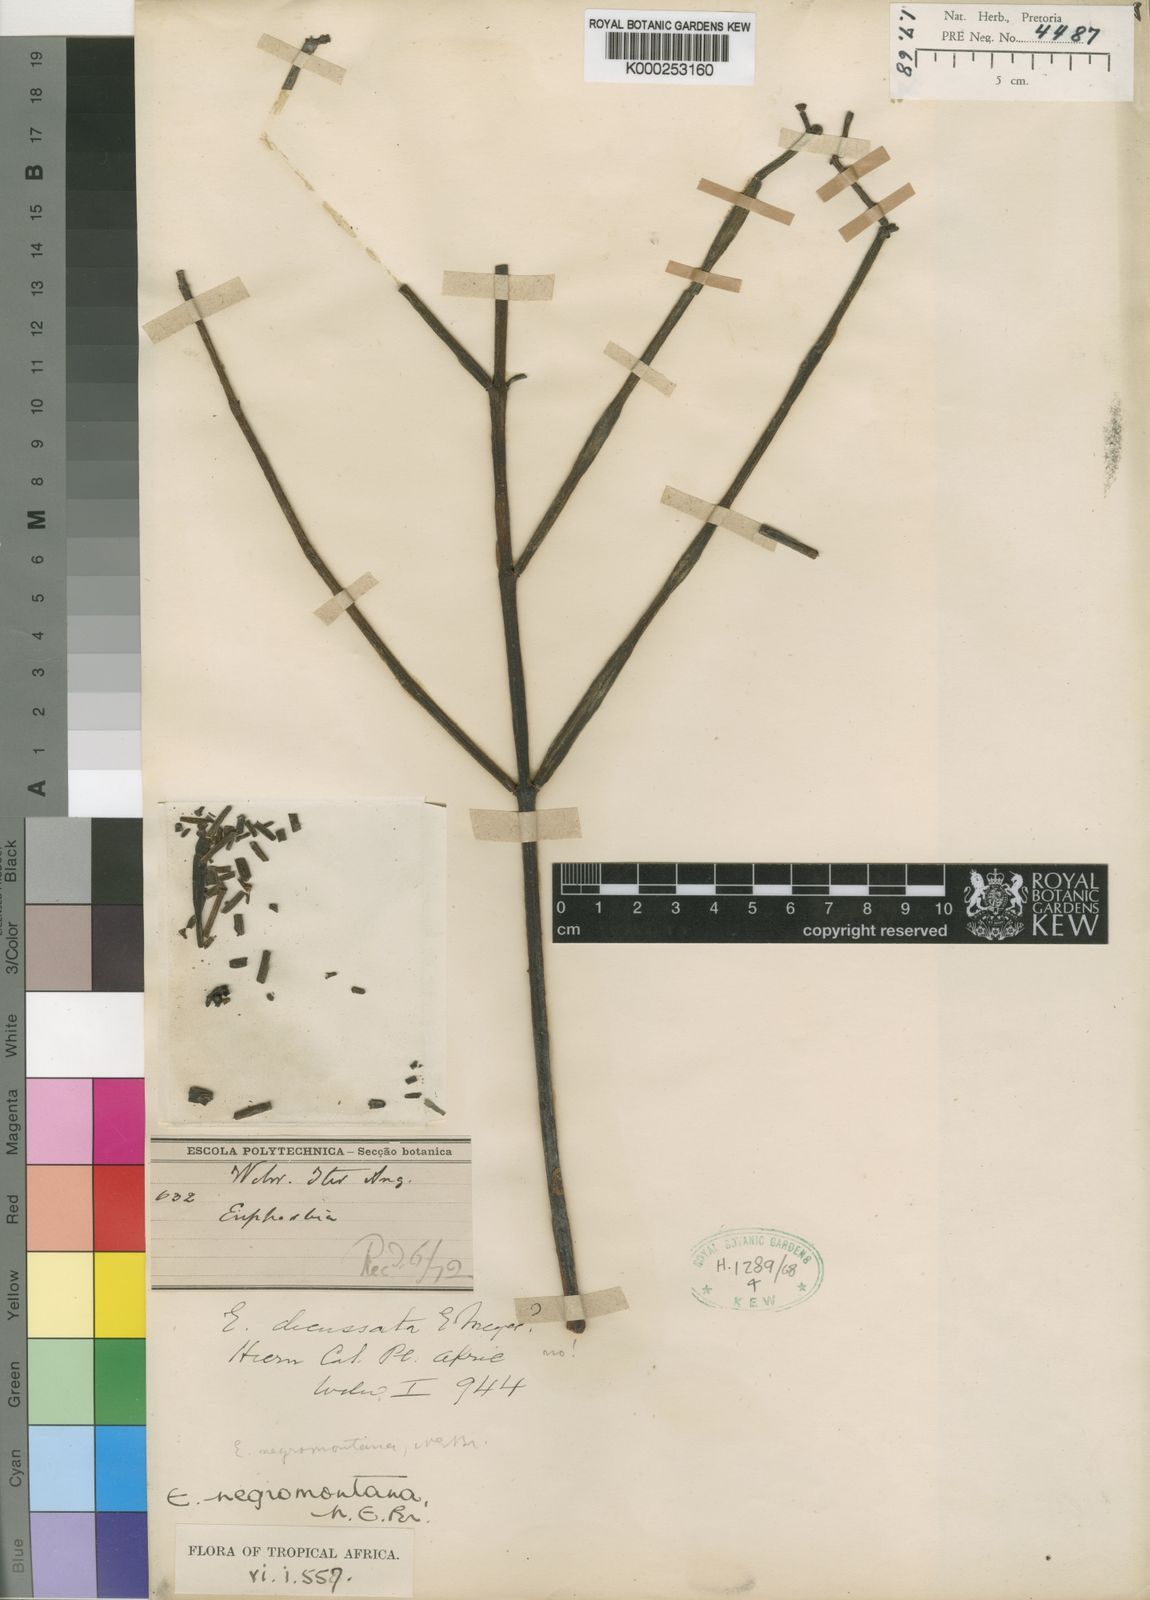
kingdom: Plantae
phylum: Tracheophyta
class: Magnoliopsida
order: Malpighiales
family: Euphorbiaceae
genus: Euphorbia
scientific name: Euphorbia negromontana
